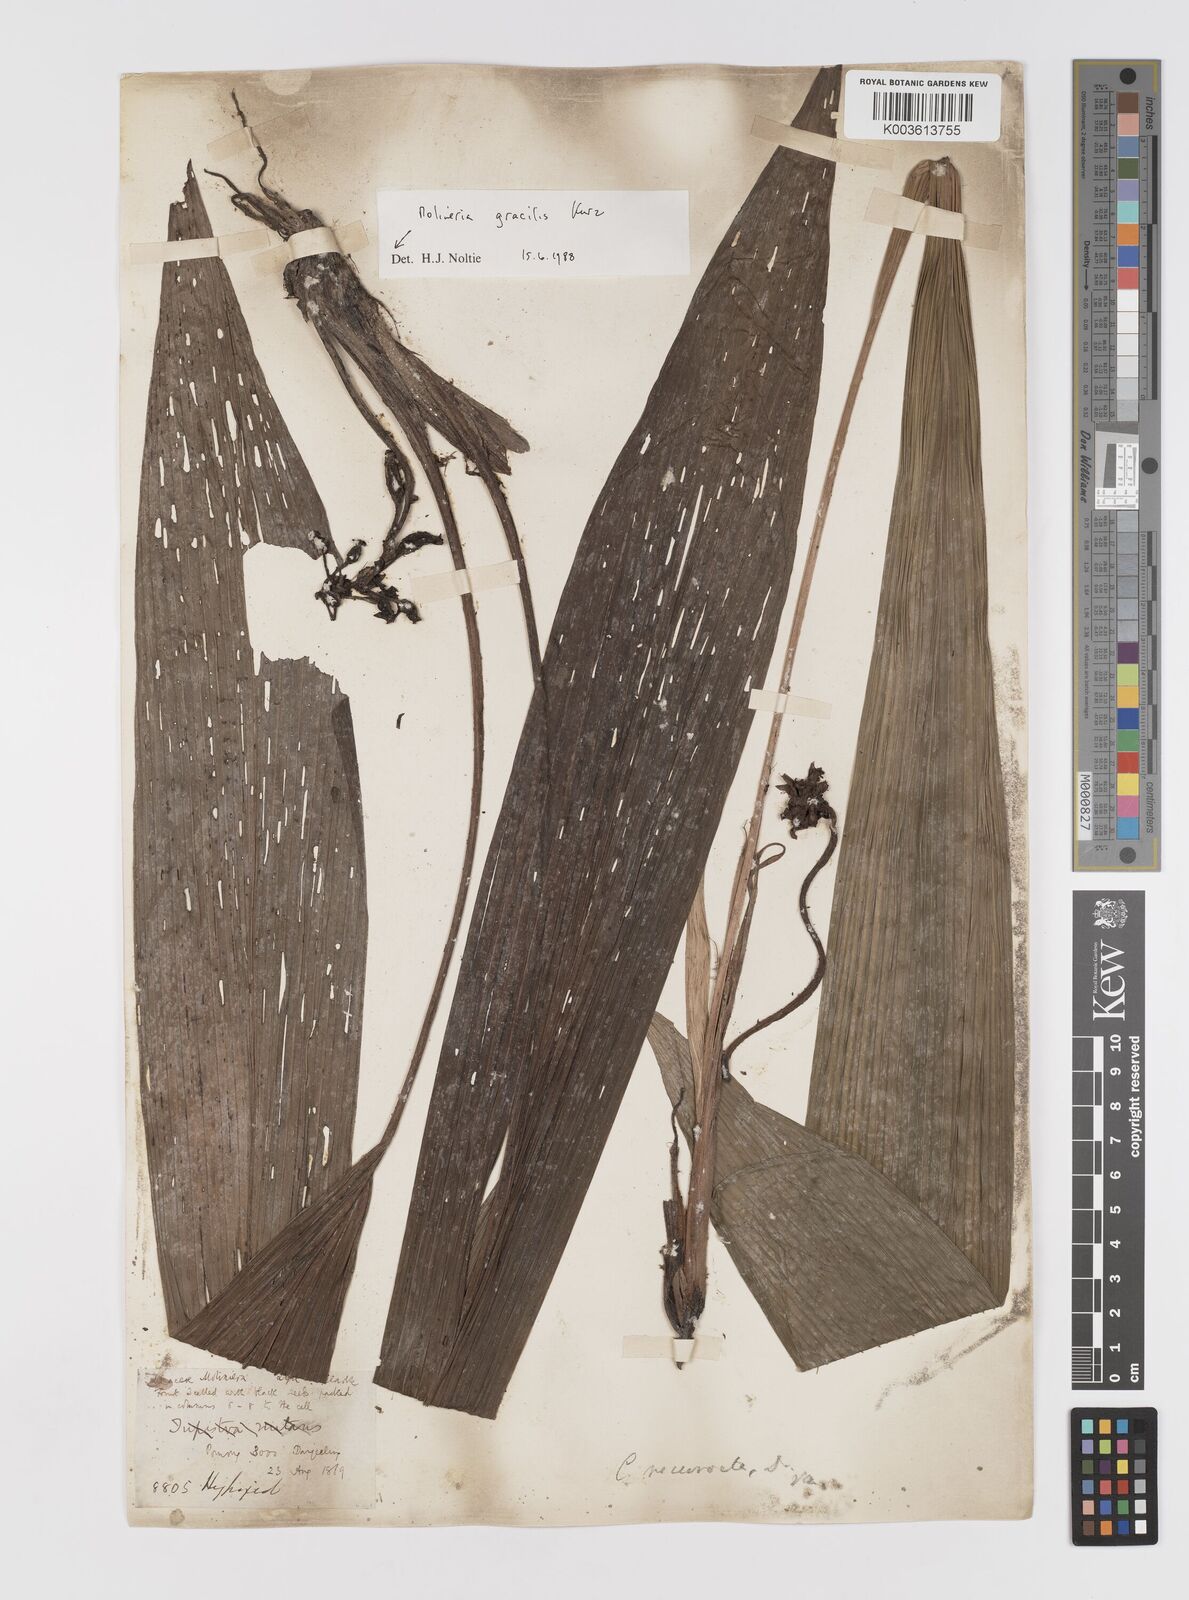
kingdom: Plantae
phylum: Tracheophyta
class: Liliopsida
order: Asparagales
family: Hypoxidaceae
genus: Curculigo
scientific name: Curculigo gracilis
